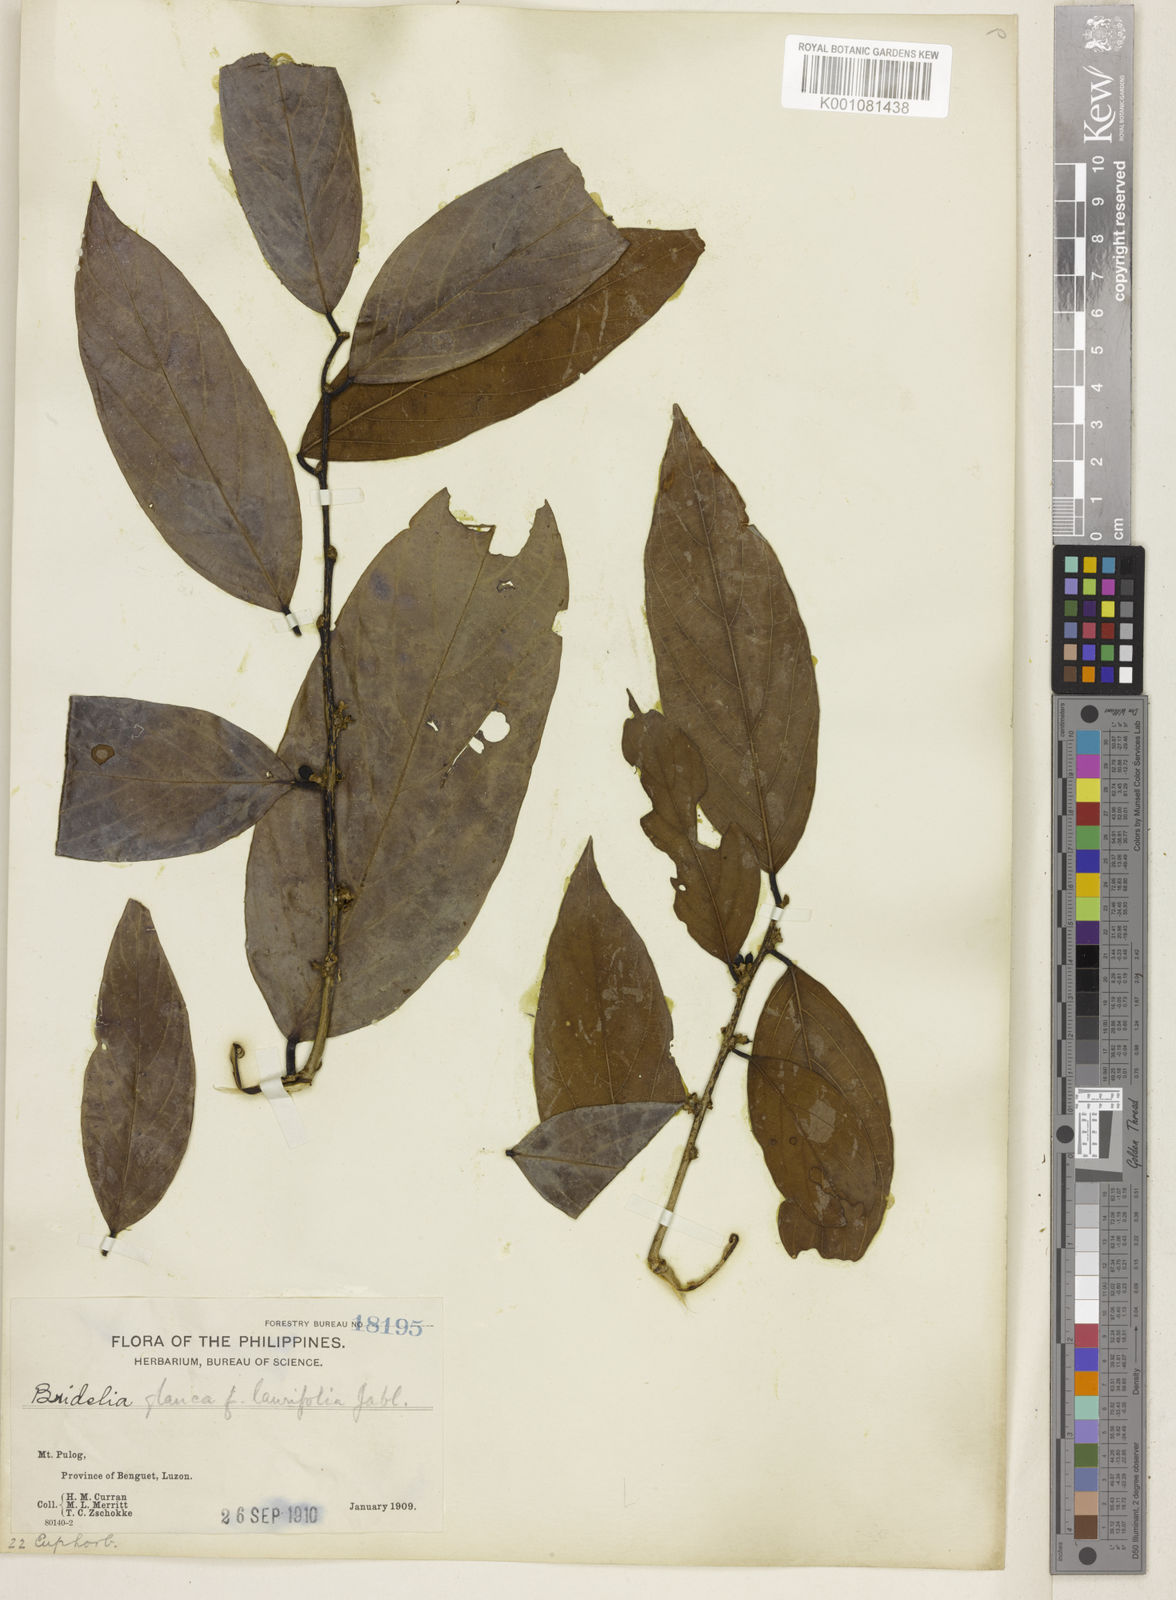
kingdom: Plantae
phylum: Tracheophyta
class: Magnoliopsida
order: Malpighiales
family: Phyllanthaceae
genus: Bridelia
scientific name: Bridelia glauca
